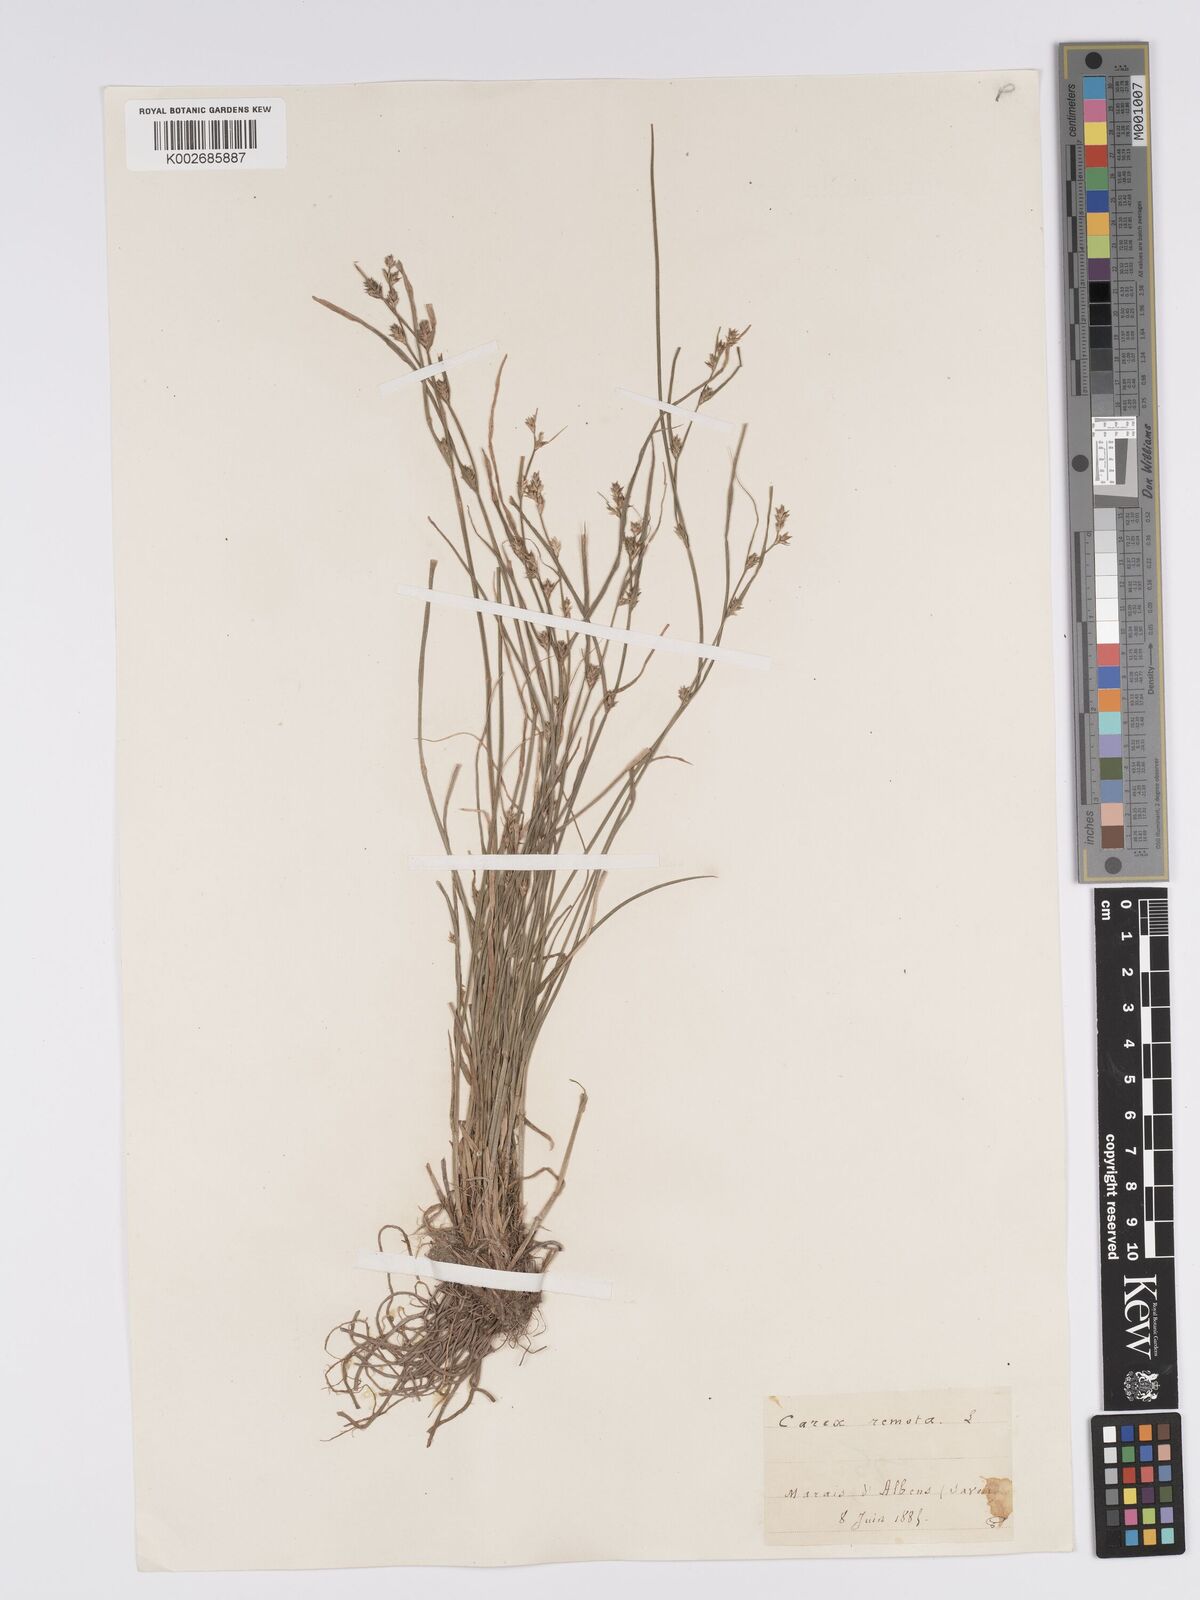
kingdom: Plantae
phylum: Tracheophyta
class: Liliopsida
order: Poales
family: Cyperaceae
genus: Carex
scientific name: Carex remota
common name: Remote sedge
